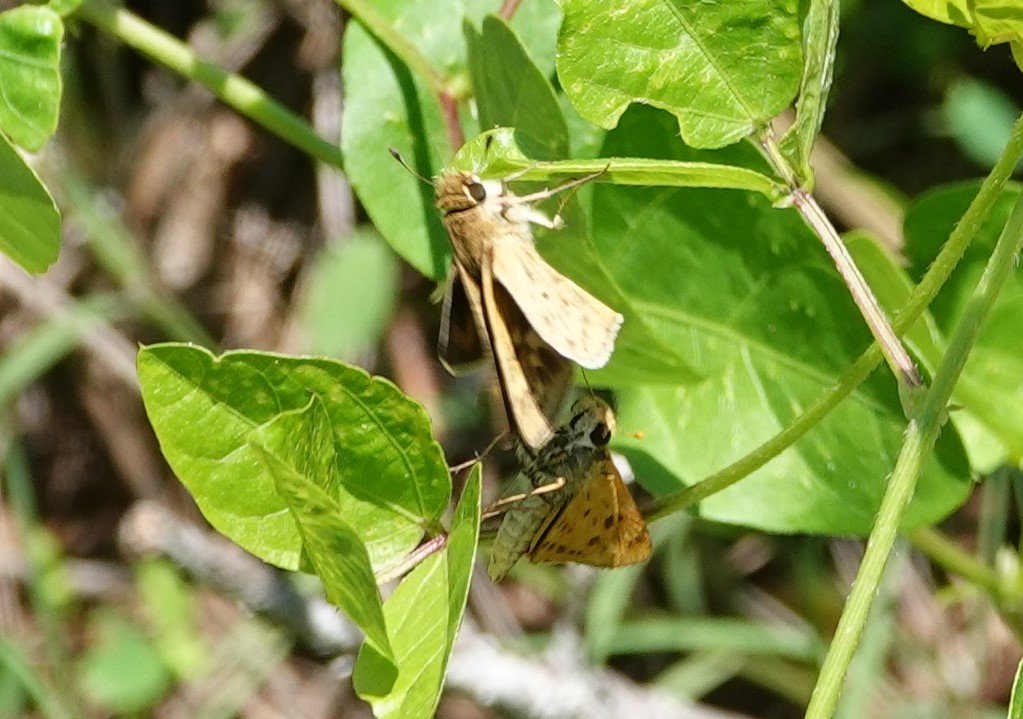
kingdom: Animalia
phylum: Arthropoda
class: Insecta
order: Lepidoptera
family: Hesperiidae
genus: Hylephila
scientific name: Hylephila phyleus
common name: Fiery Skipper
